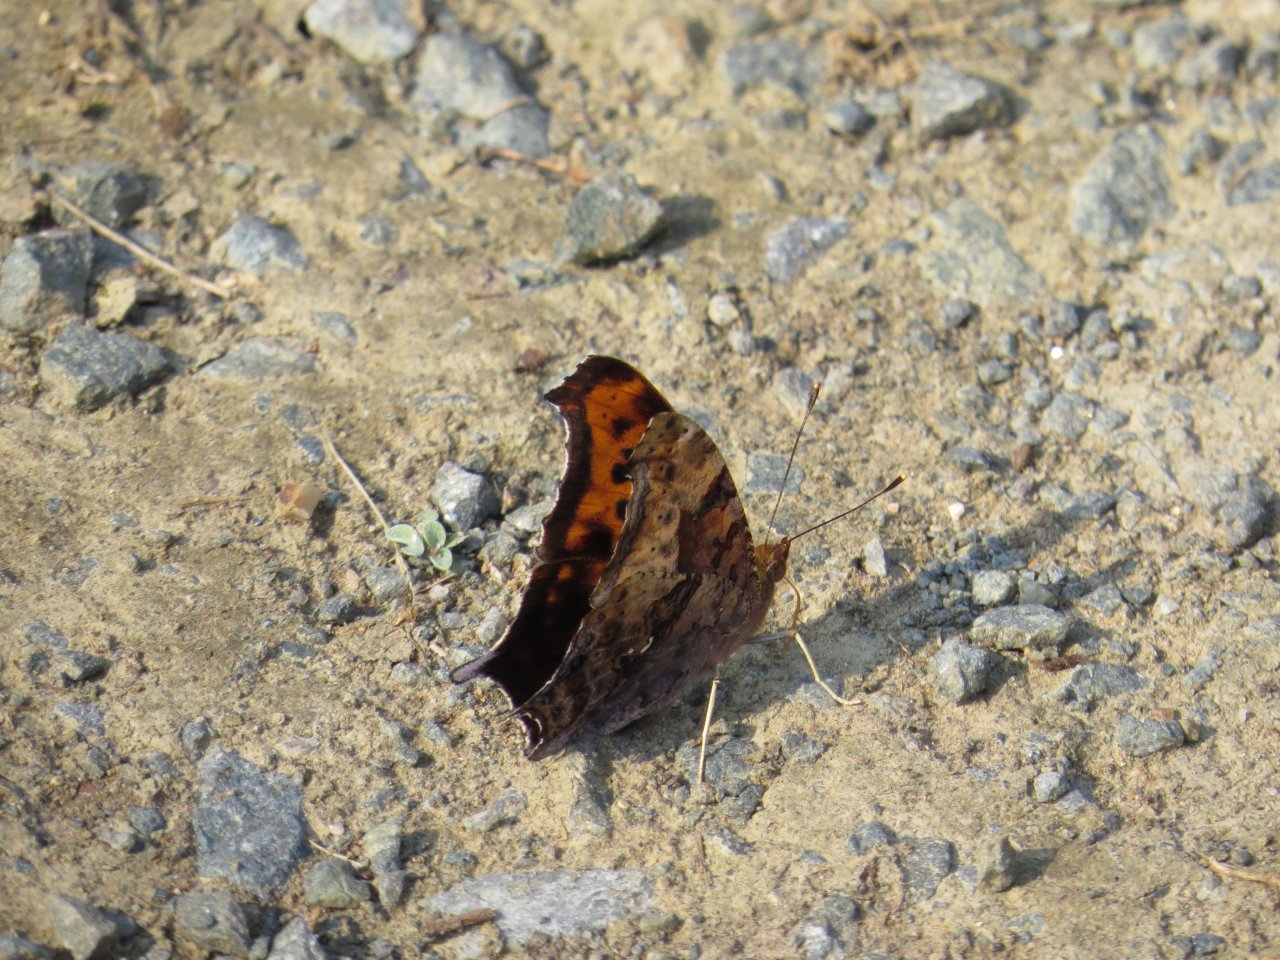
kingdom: Animalia
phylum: Arthropoda
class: Insecta
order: Lepidoptera
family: Nymphalidae
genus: Polygonia
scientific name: Polygonia interrogationis
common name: Question Mark
